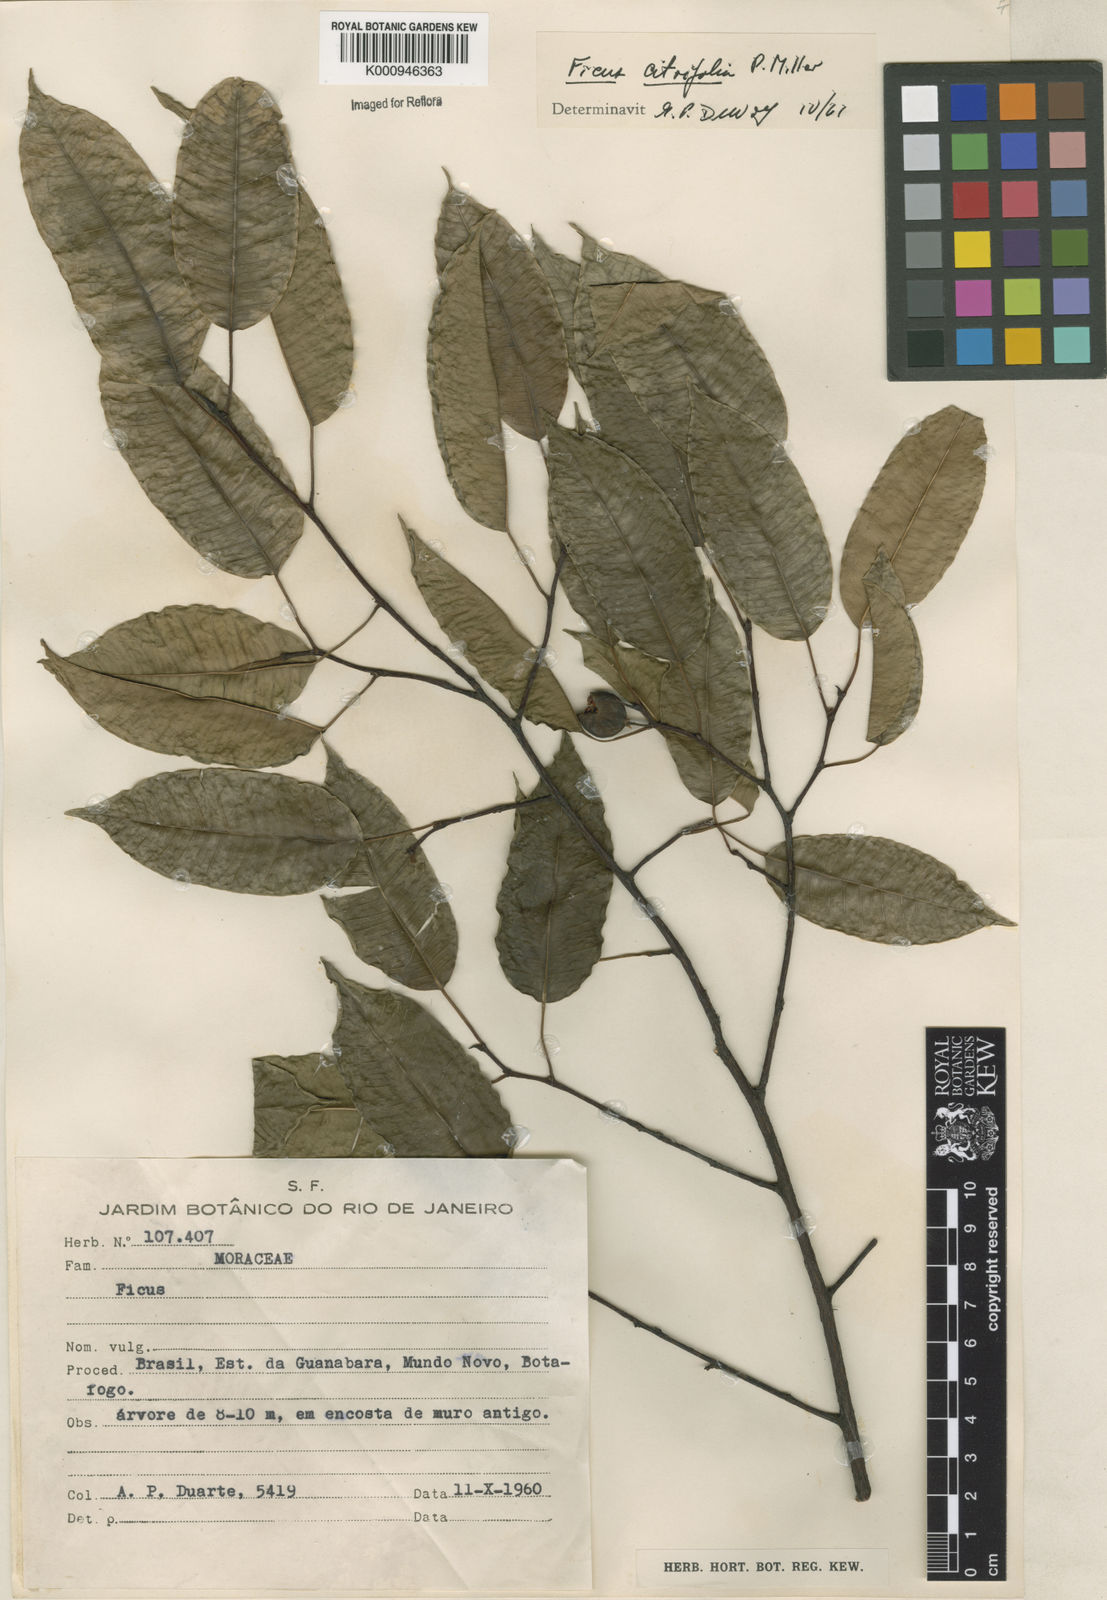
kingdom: Plantae
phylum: Tracheophyta
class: Magnoliopsida
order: Rosales
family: Moraceae
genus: Ficus
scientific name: Ficus citrifolia
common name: Strangler fig
